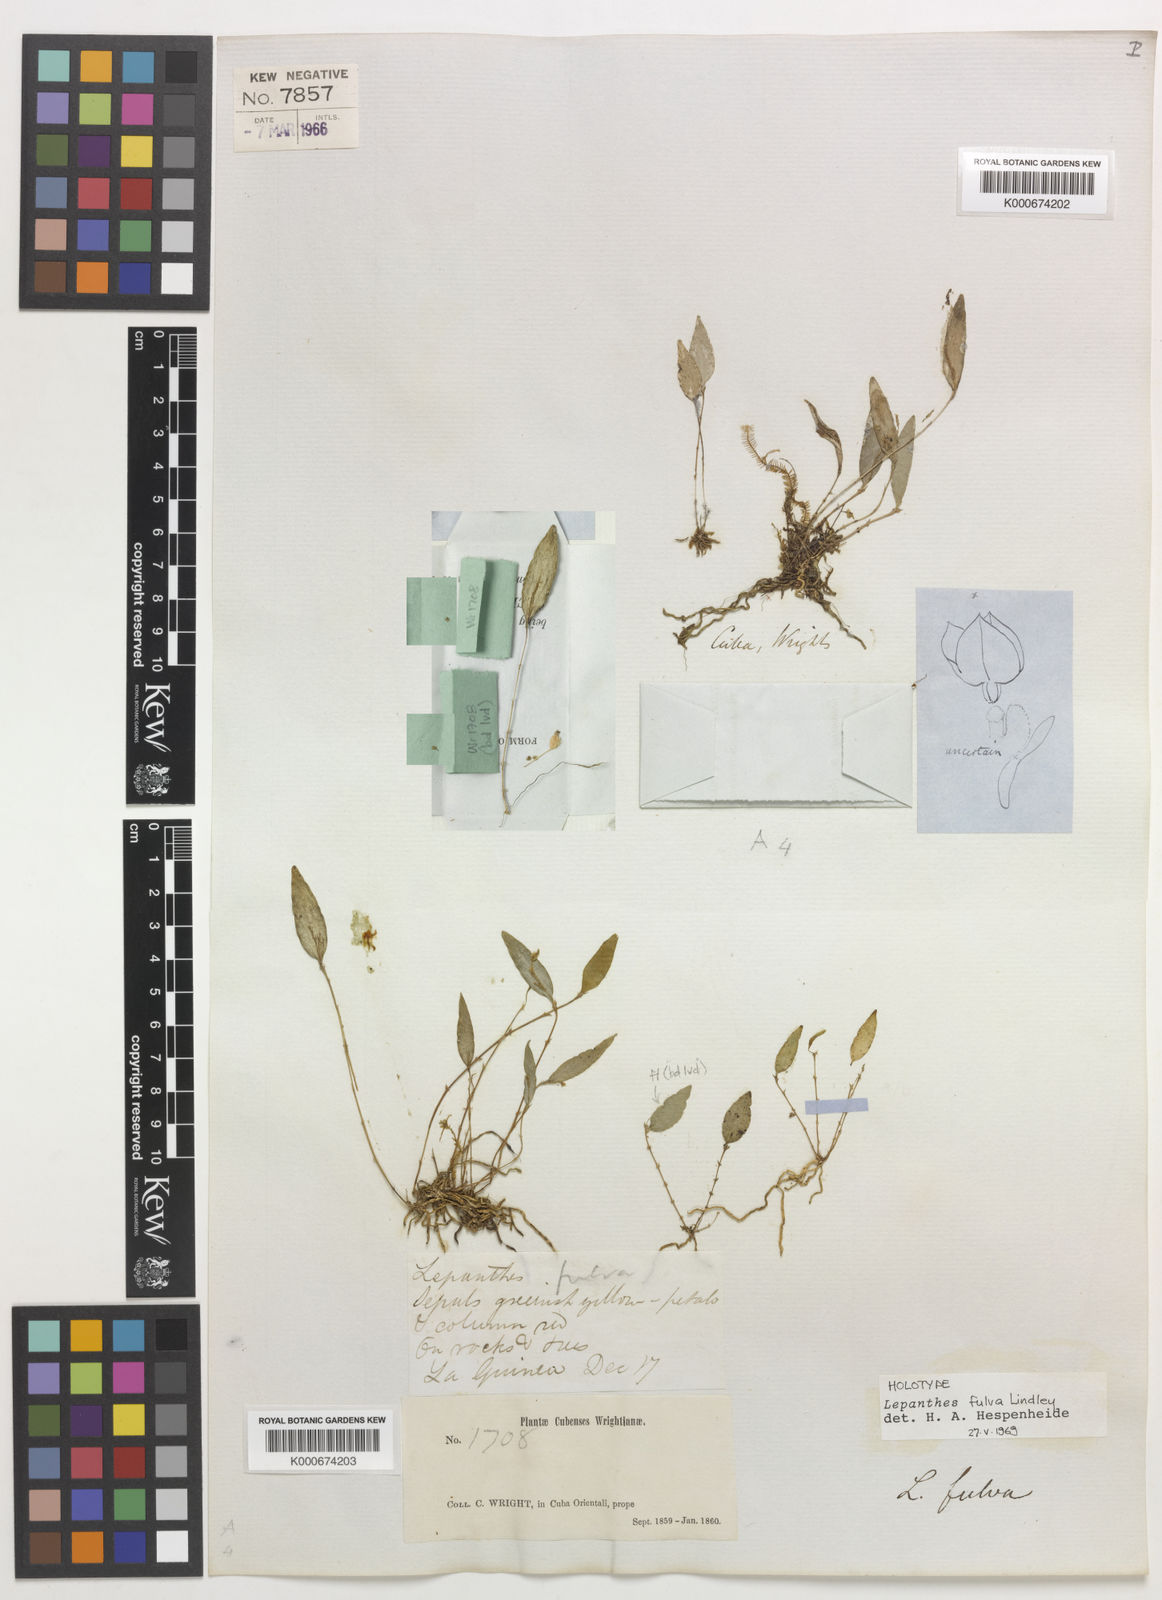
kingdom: Plantae
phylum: Tracheophyta
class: Liliopsida
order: Asparagales
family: Orchidaceae
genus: Lepanthes
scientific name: Lepanthes fulva
